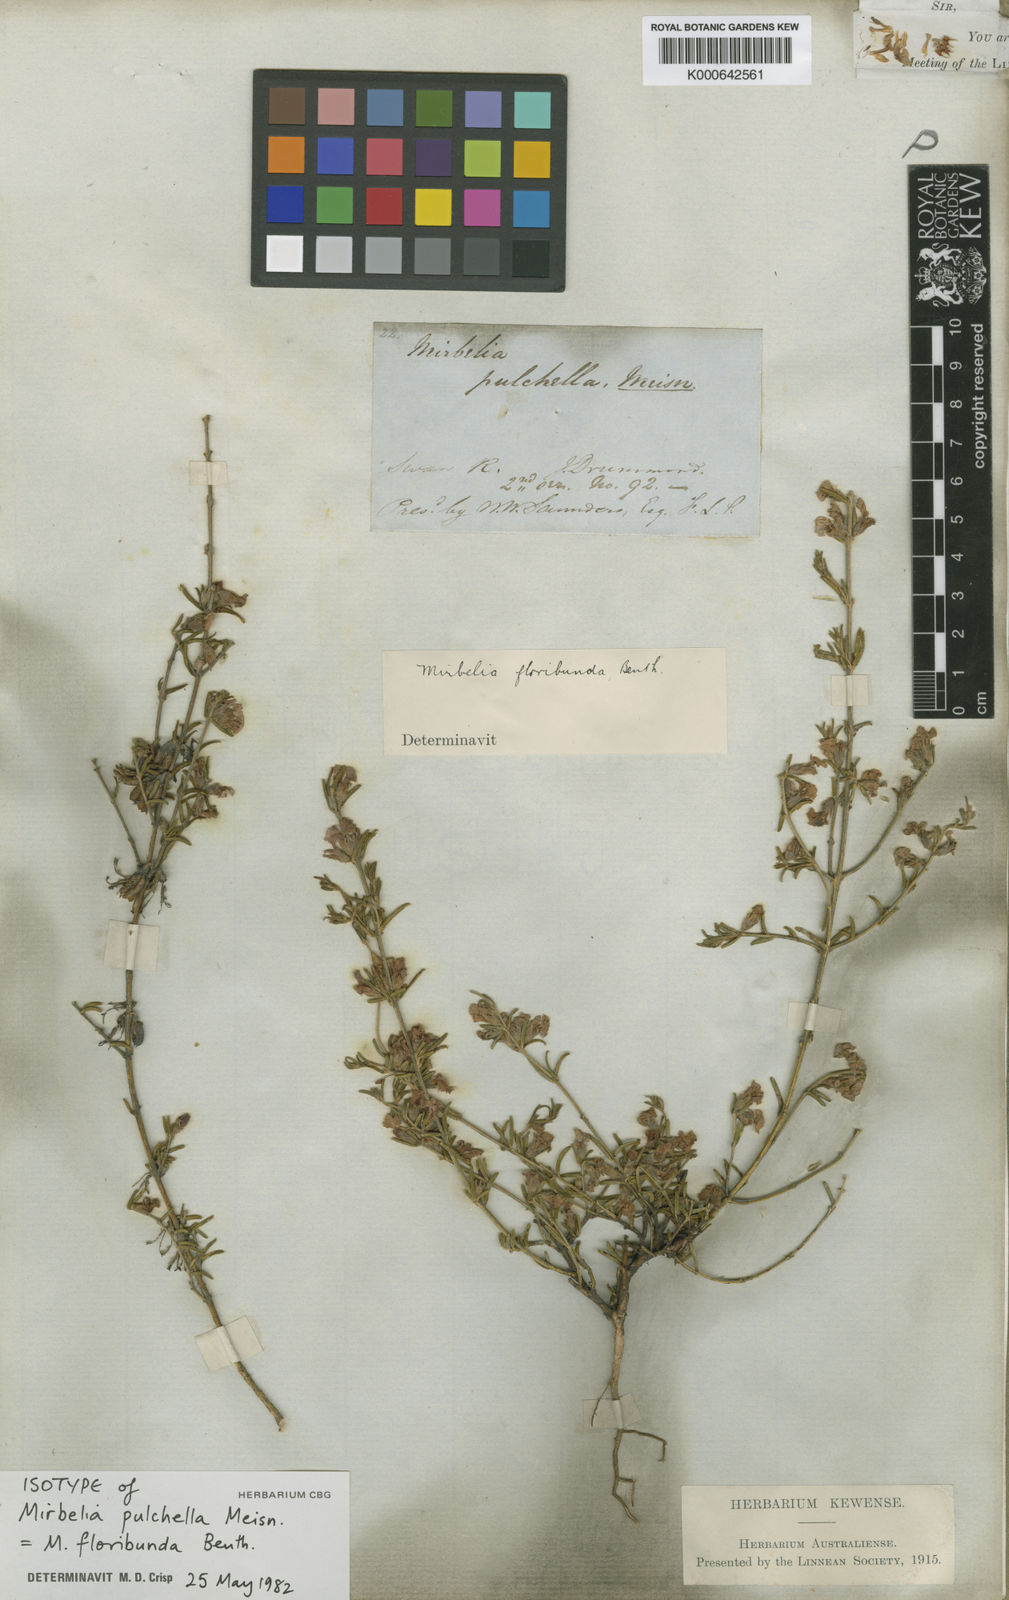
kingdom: Plantae
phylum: Tracheophyta
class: Magnoliopsida
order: Fabales
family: Fabaceae
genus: Mirbelia
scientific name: Mirbelia floribunda
